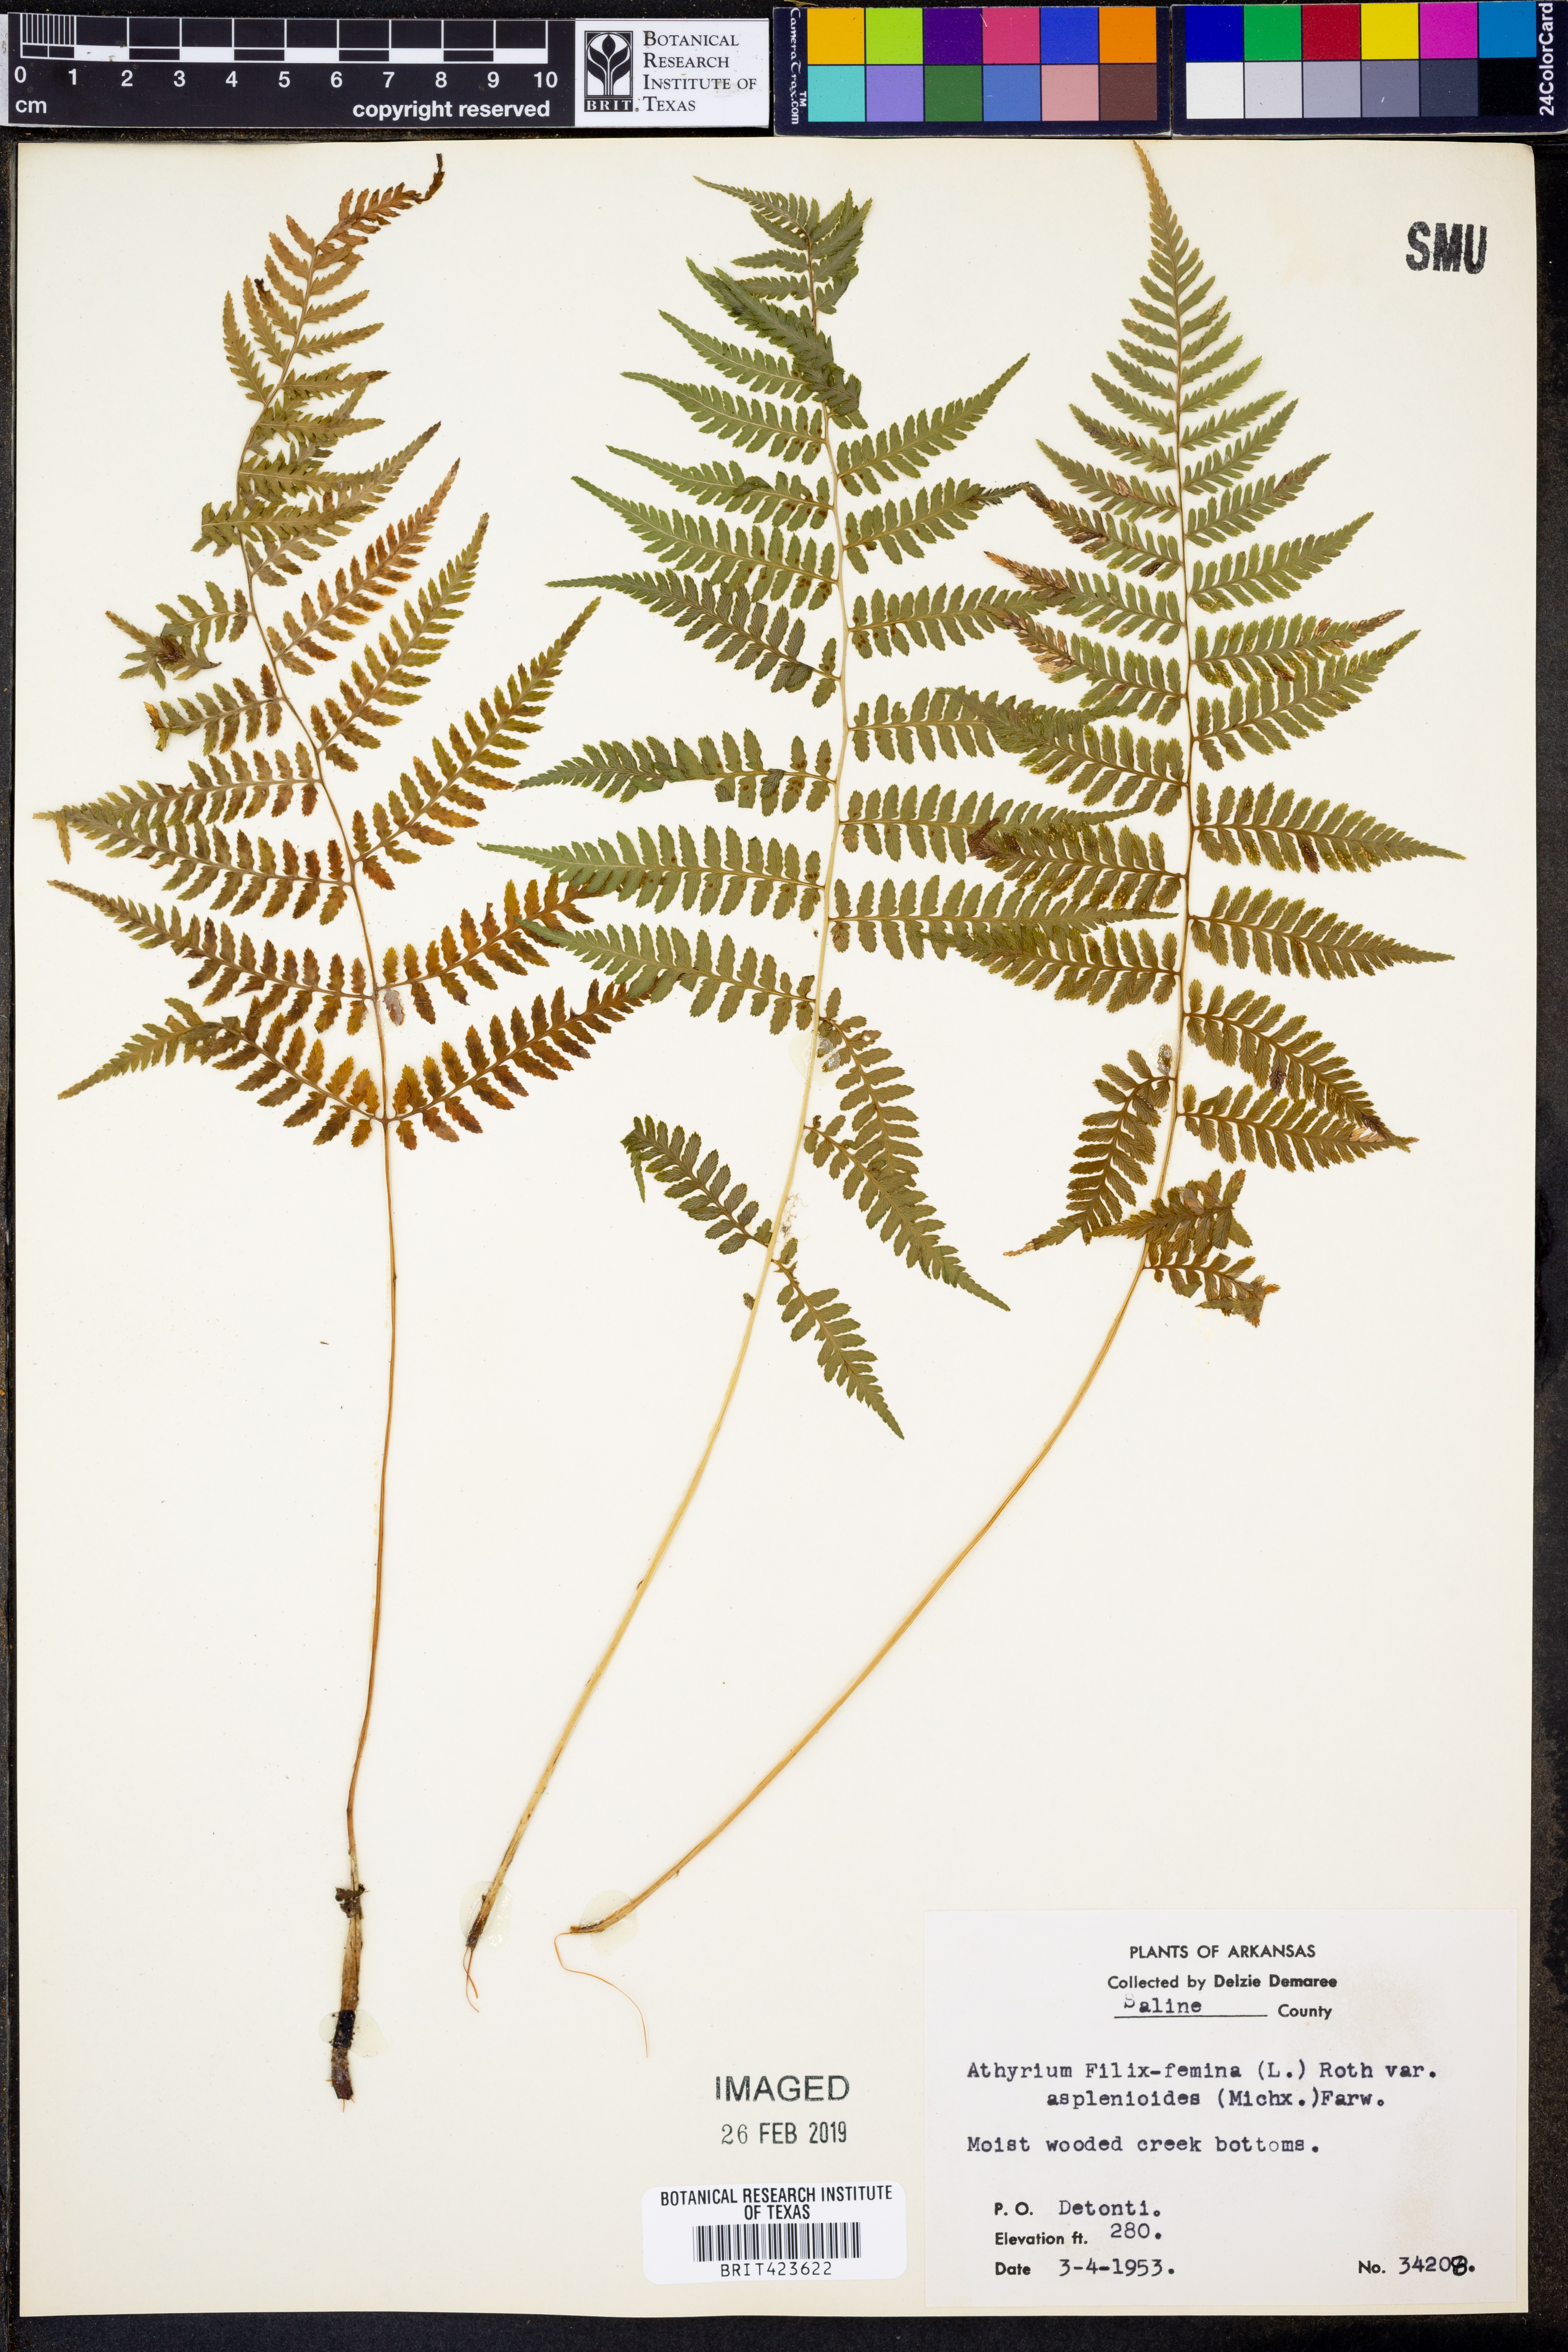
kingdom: Plantae
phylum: Tracheophyta
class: Polypodiopsida
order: Polypodiales
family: Athyriaceae
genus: Athyrium
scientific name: Athyrium asplenioides
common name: Southern lady fern
